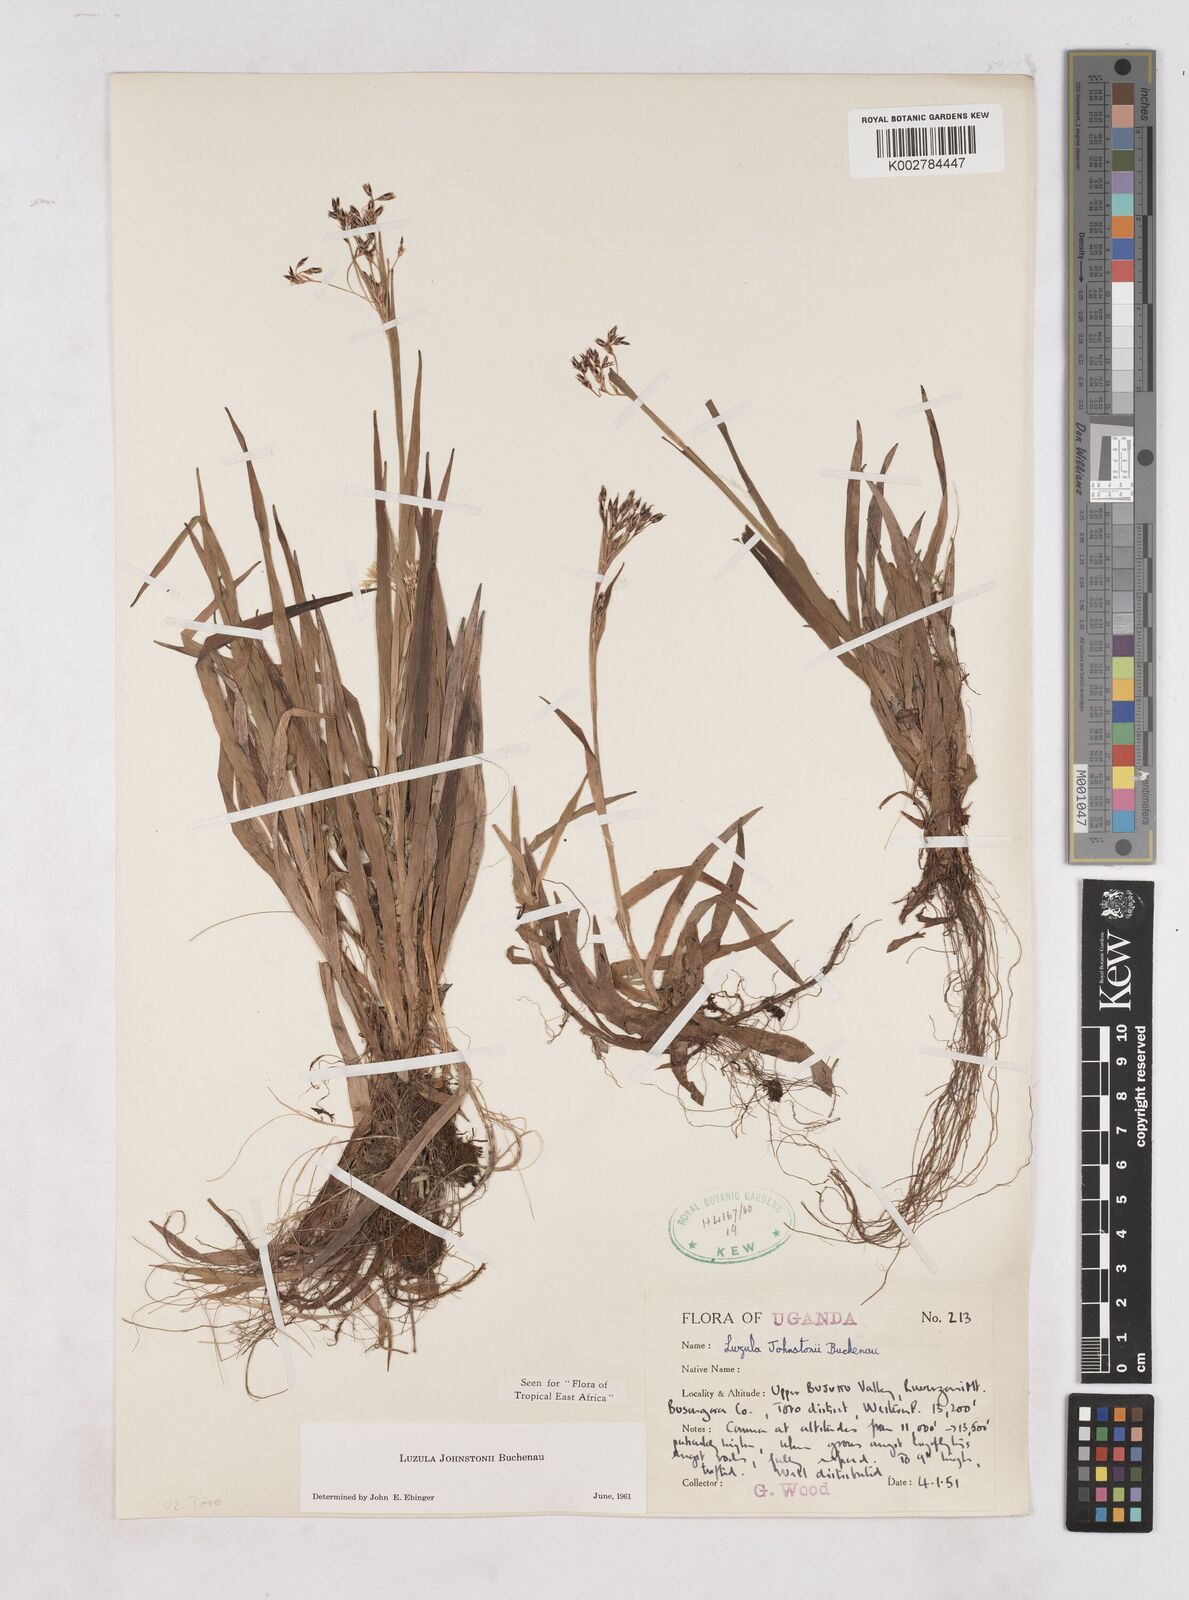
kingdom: Plantae
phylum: Tracheophyta
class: Liliopsida
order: Poales
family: Juncaceae
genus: Luzula
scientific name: Luzula johnstonii
